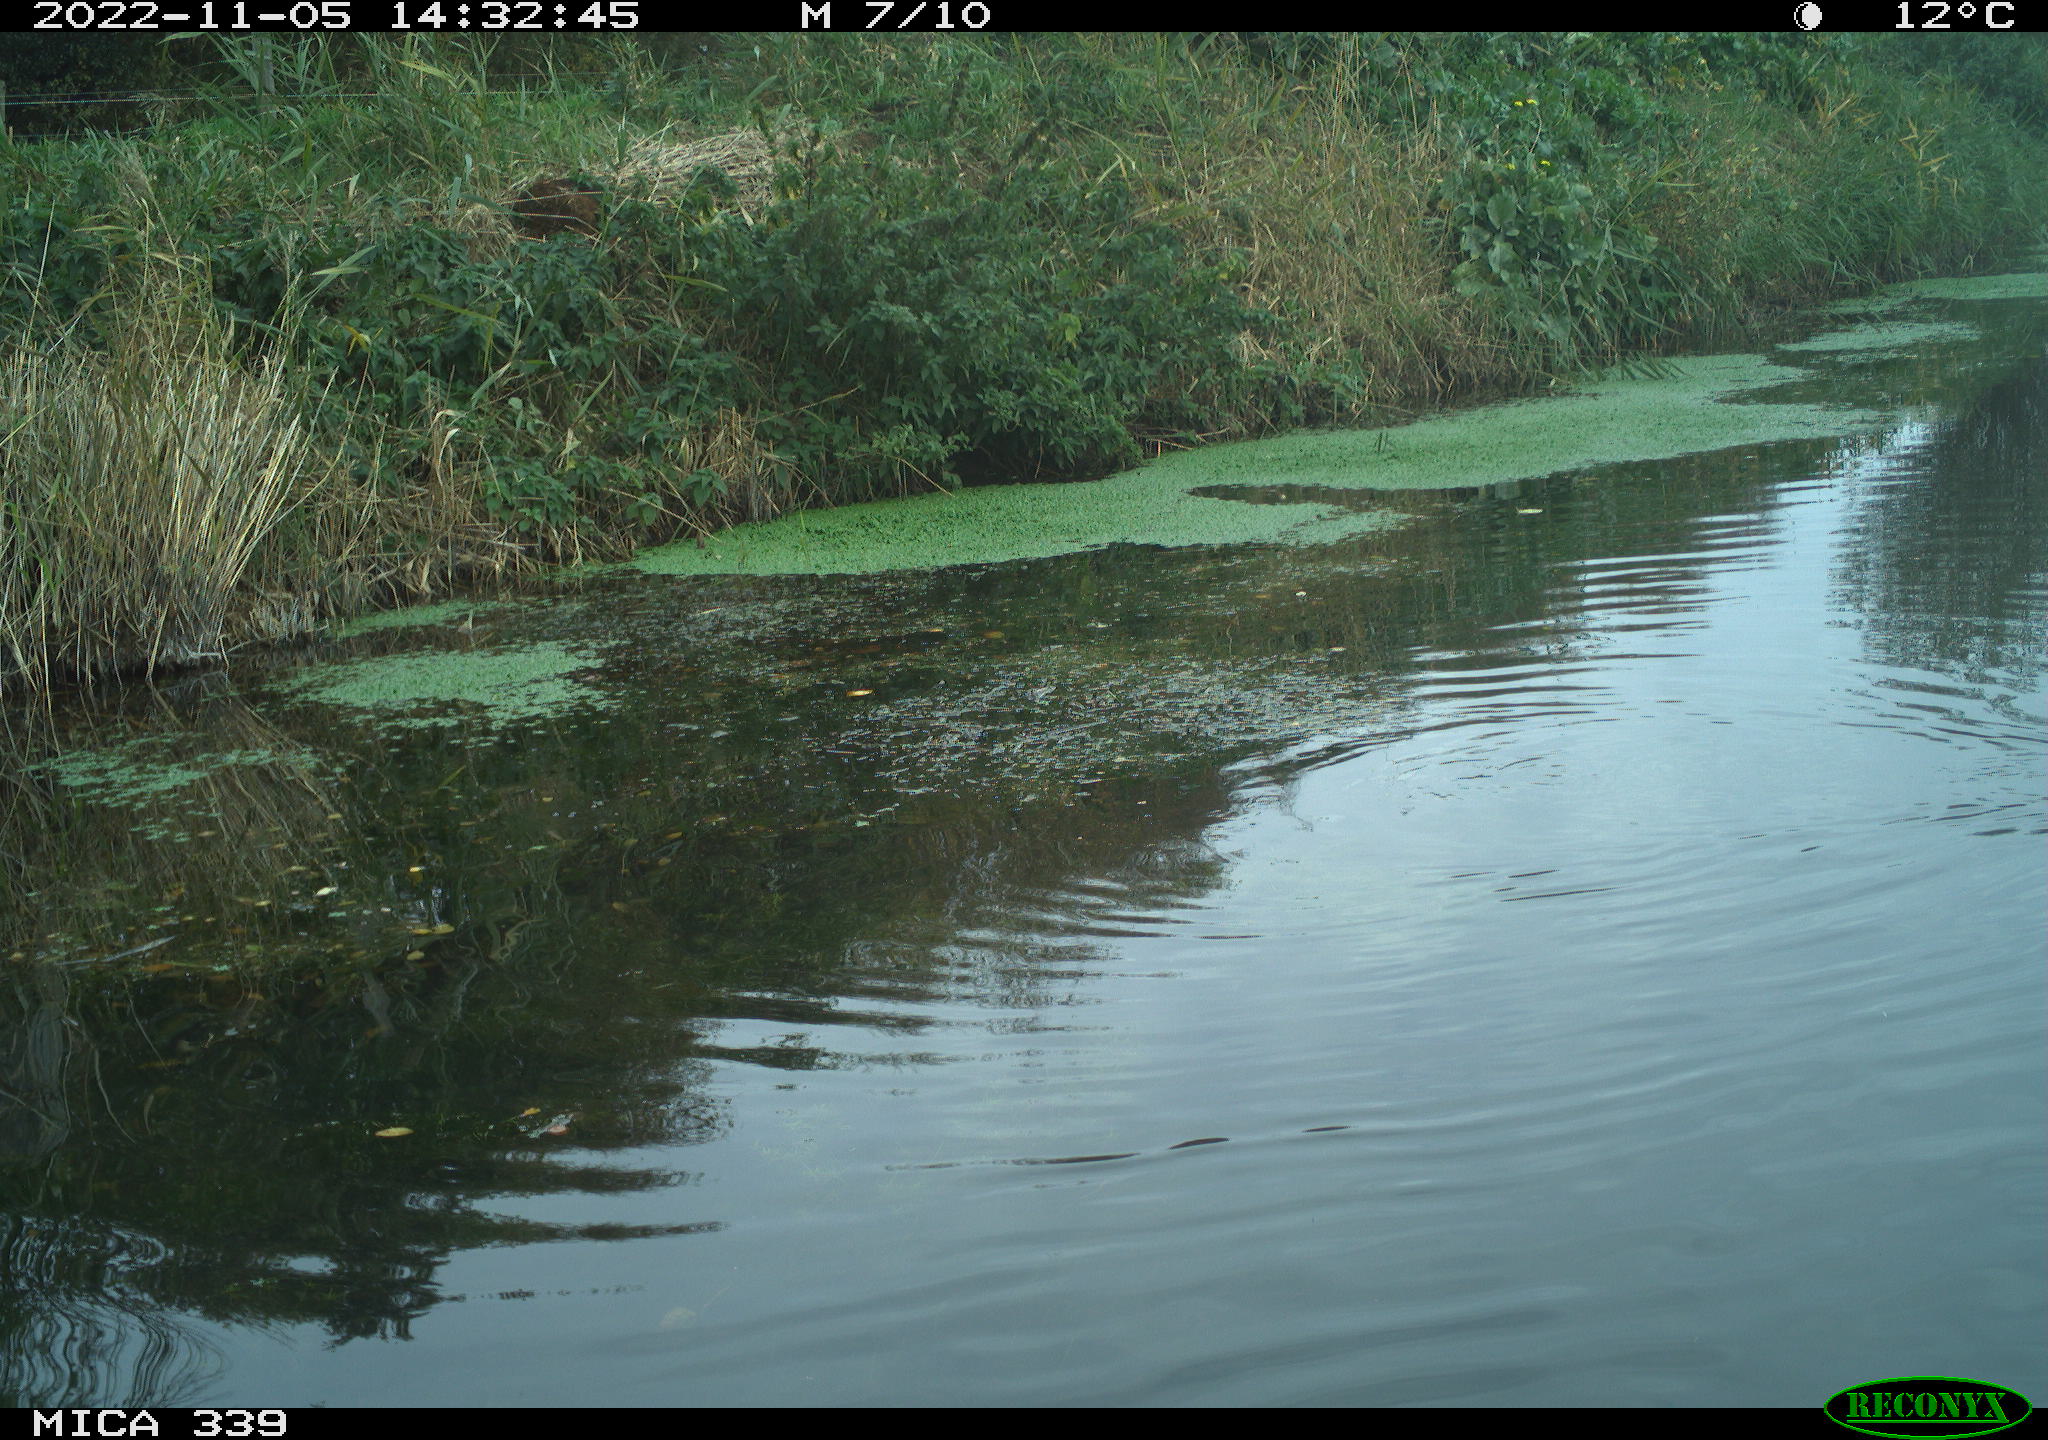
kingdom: Animalia
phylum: Chordata
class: Aves
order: Anseriformes
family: Anatidae
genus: Anas
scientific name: Anas platyrhynchos
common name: Mallard
